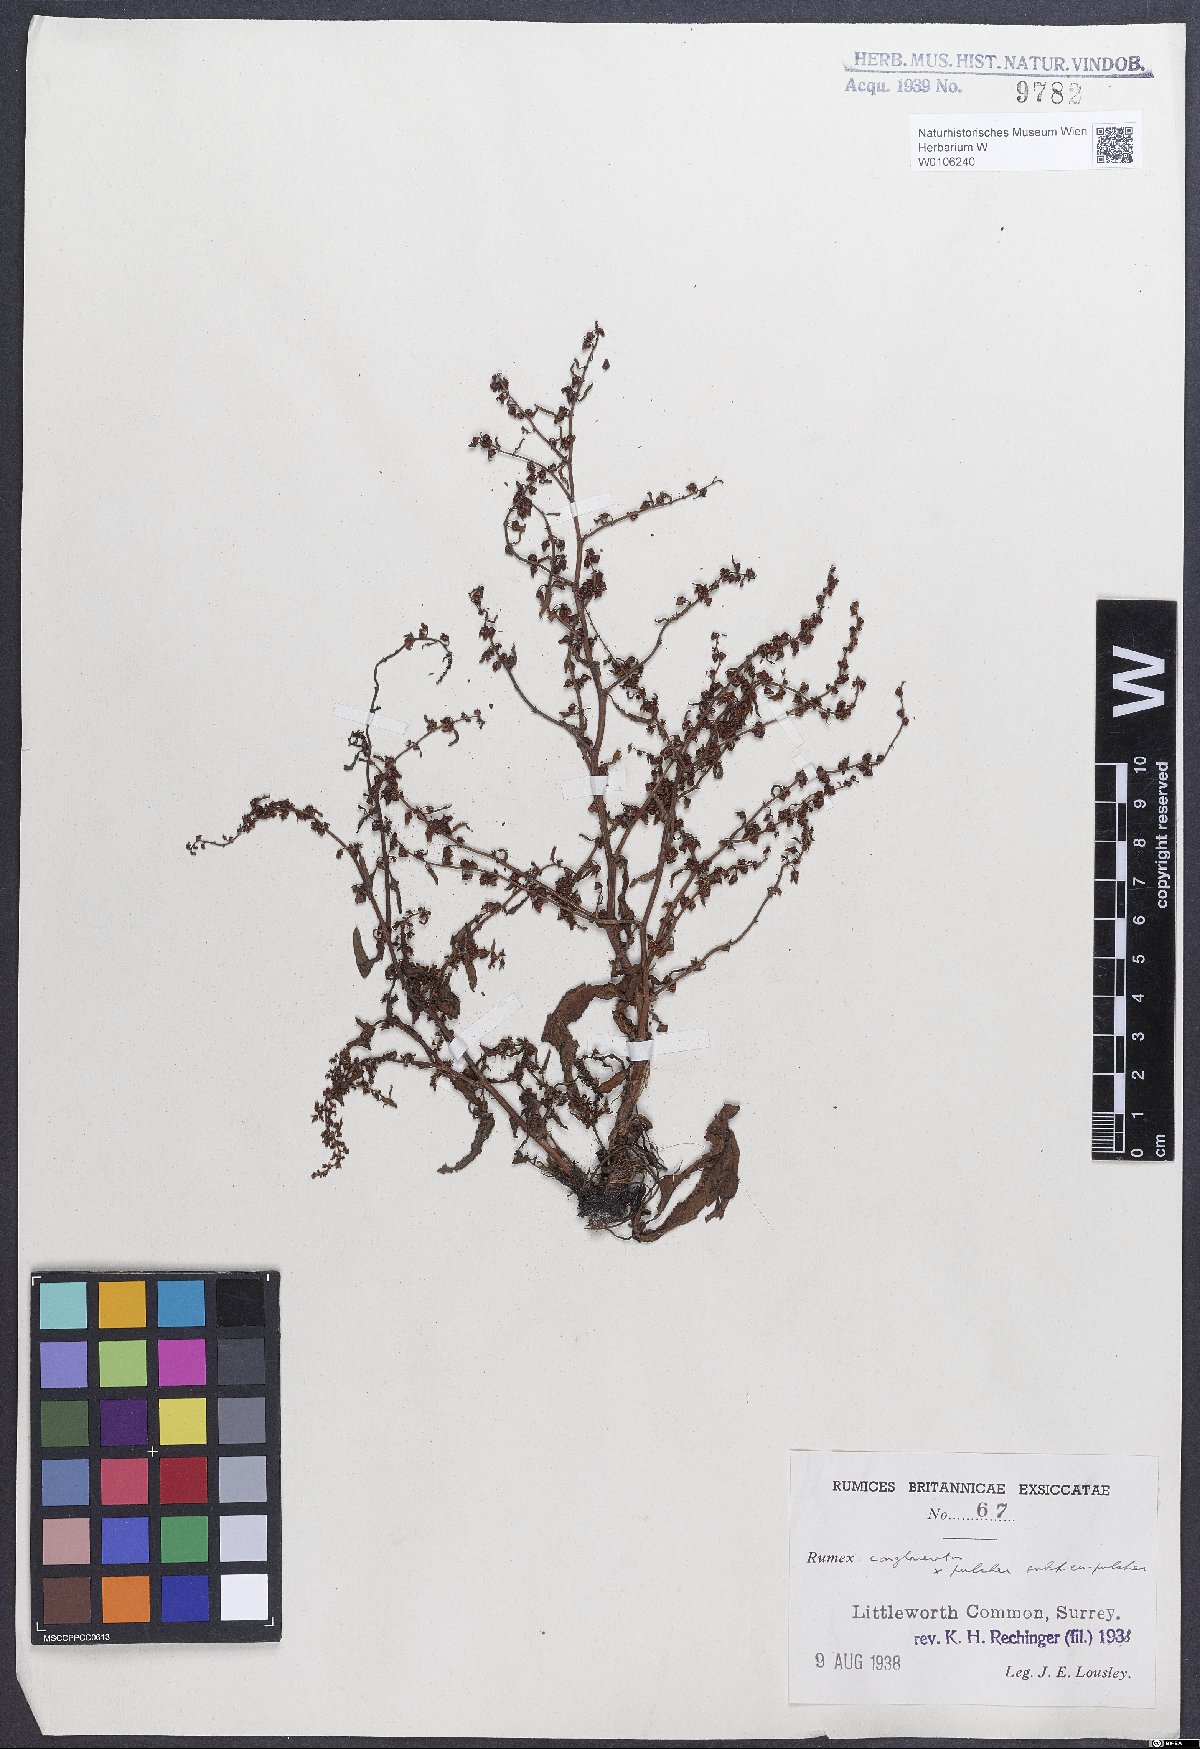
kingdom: Plantae
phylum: Tracheophyta
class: Magnoliopsida
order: Caryophyllales
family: Polygonaceae
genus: Rumex
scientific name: Rumex
